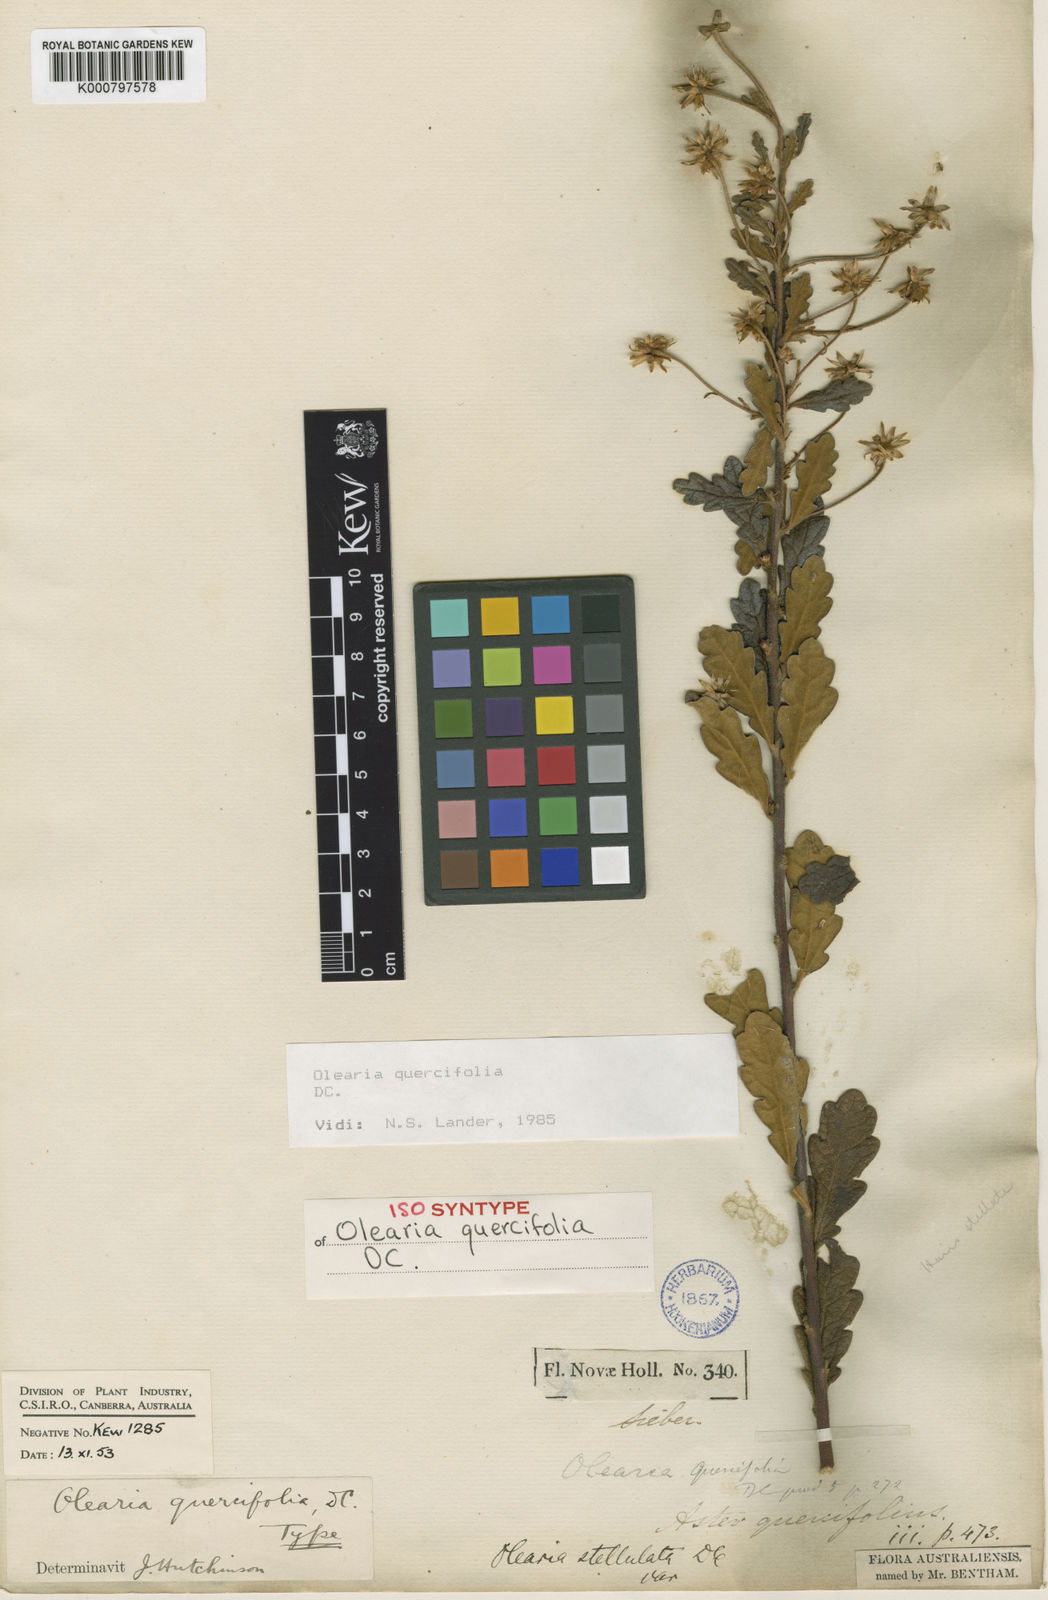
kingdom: Plantae
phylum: Tracheophyta
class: Magnoliopsida
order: Asterales
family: Asteraceae
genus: Olearia
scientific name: Olearia quercifolia
